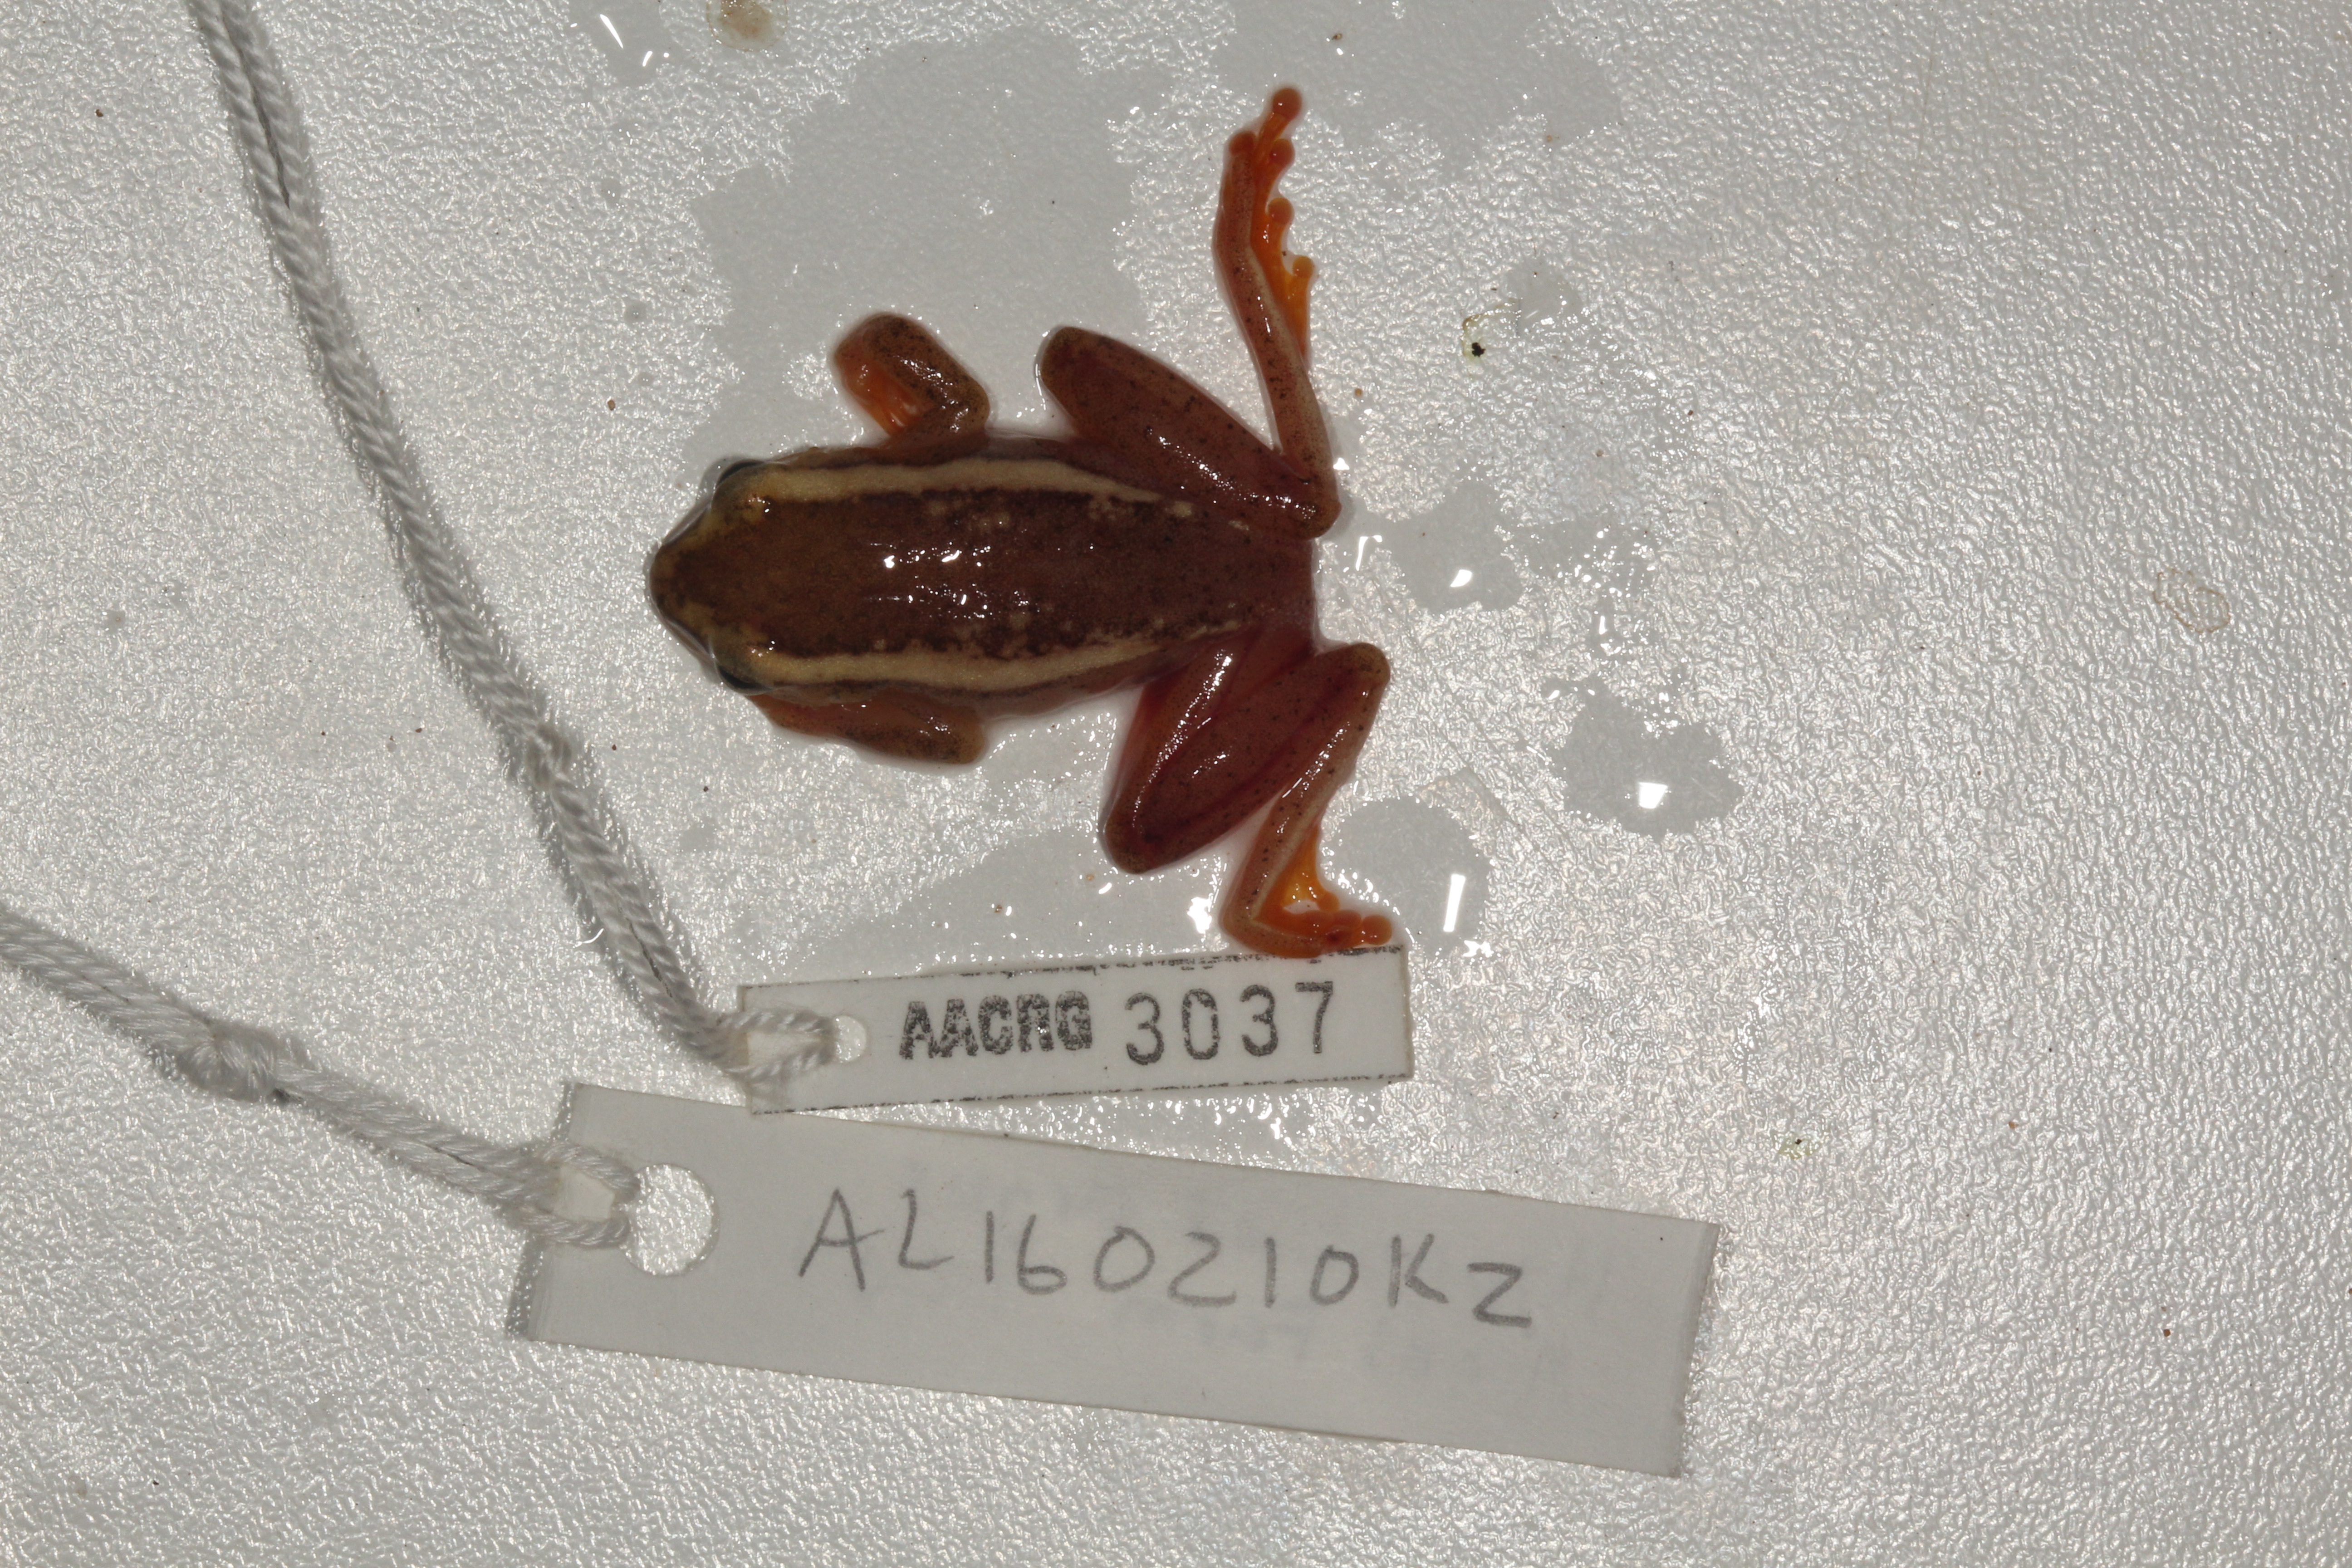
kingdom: Animalia
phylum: Chordata
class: Amphibia
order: Anura
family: Hyperoliidae
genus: Hyperolius
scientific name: Hyperolius argus
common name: Argus reed frog
